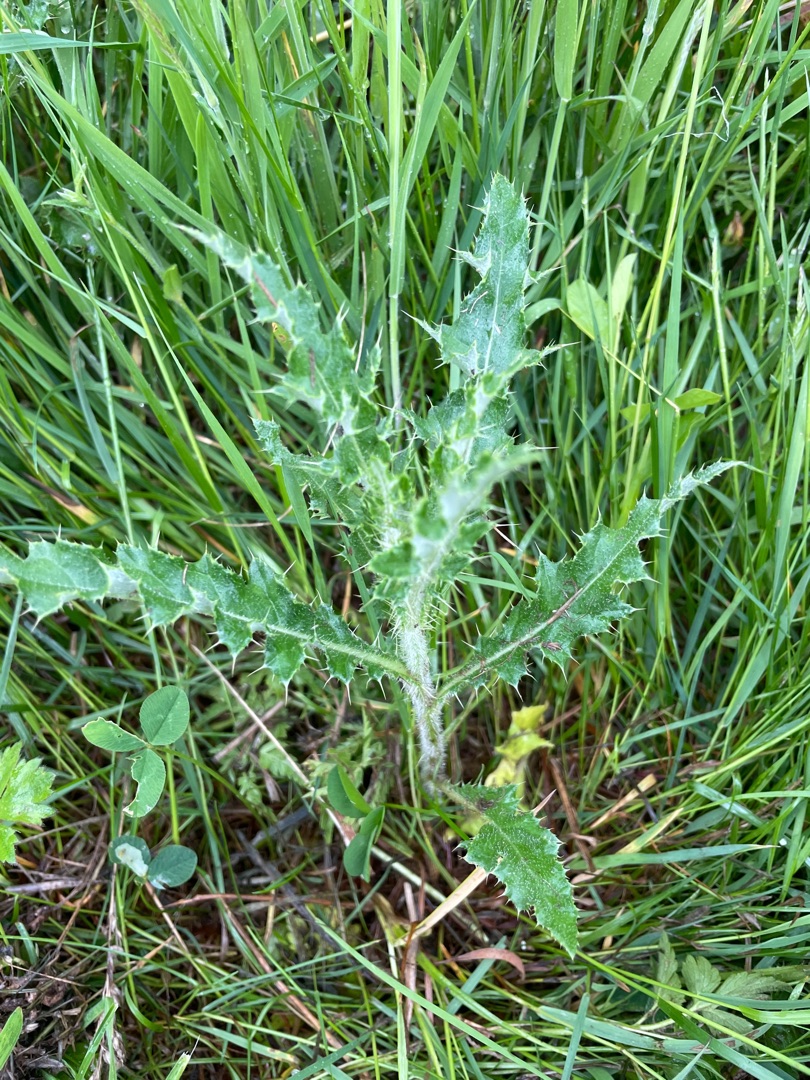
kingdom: Plantae
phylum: Tracheophyta
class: Magnoliopsida
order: Asterales
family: Asteraceae
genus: Cirsium
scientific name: Cirsium arvense
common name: Ager-tidsel
